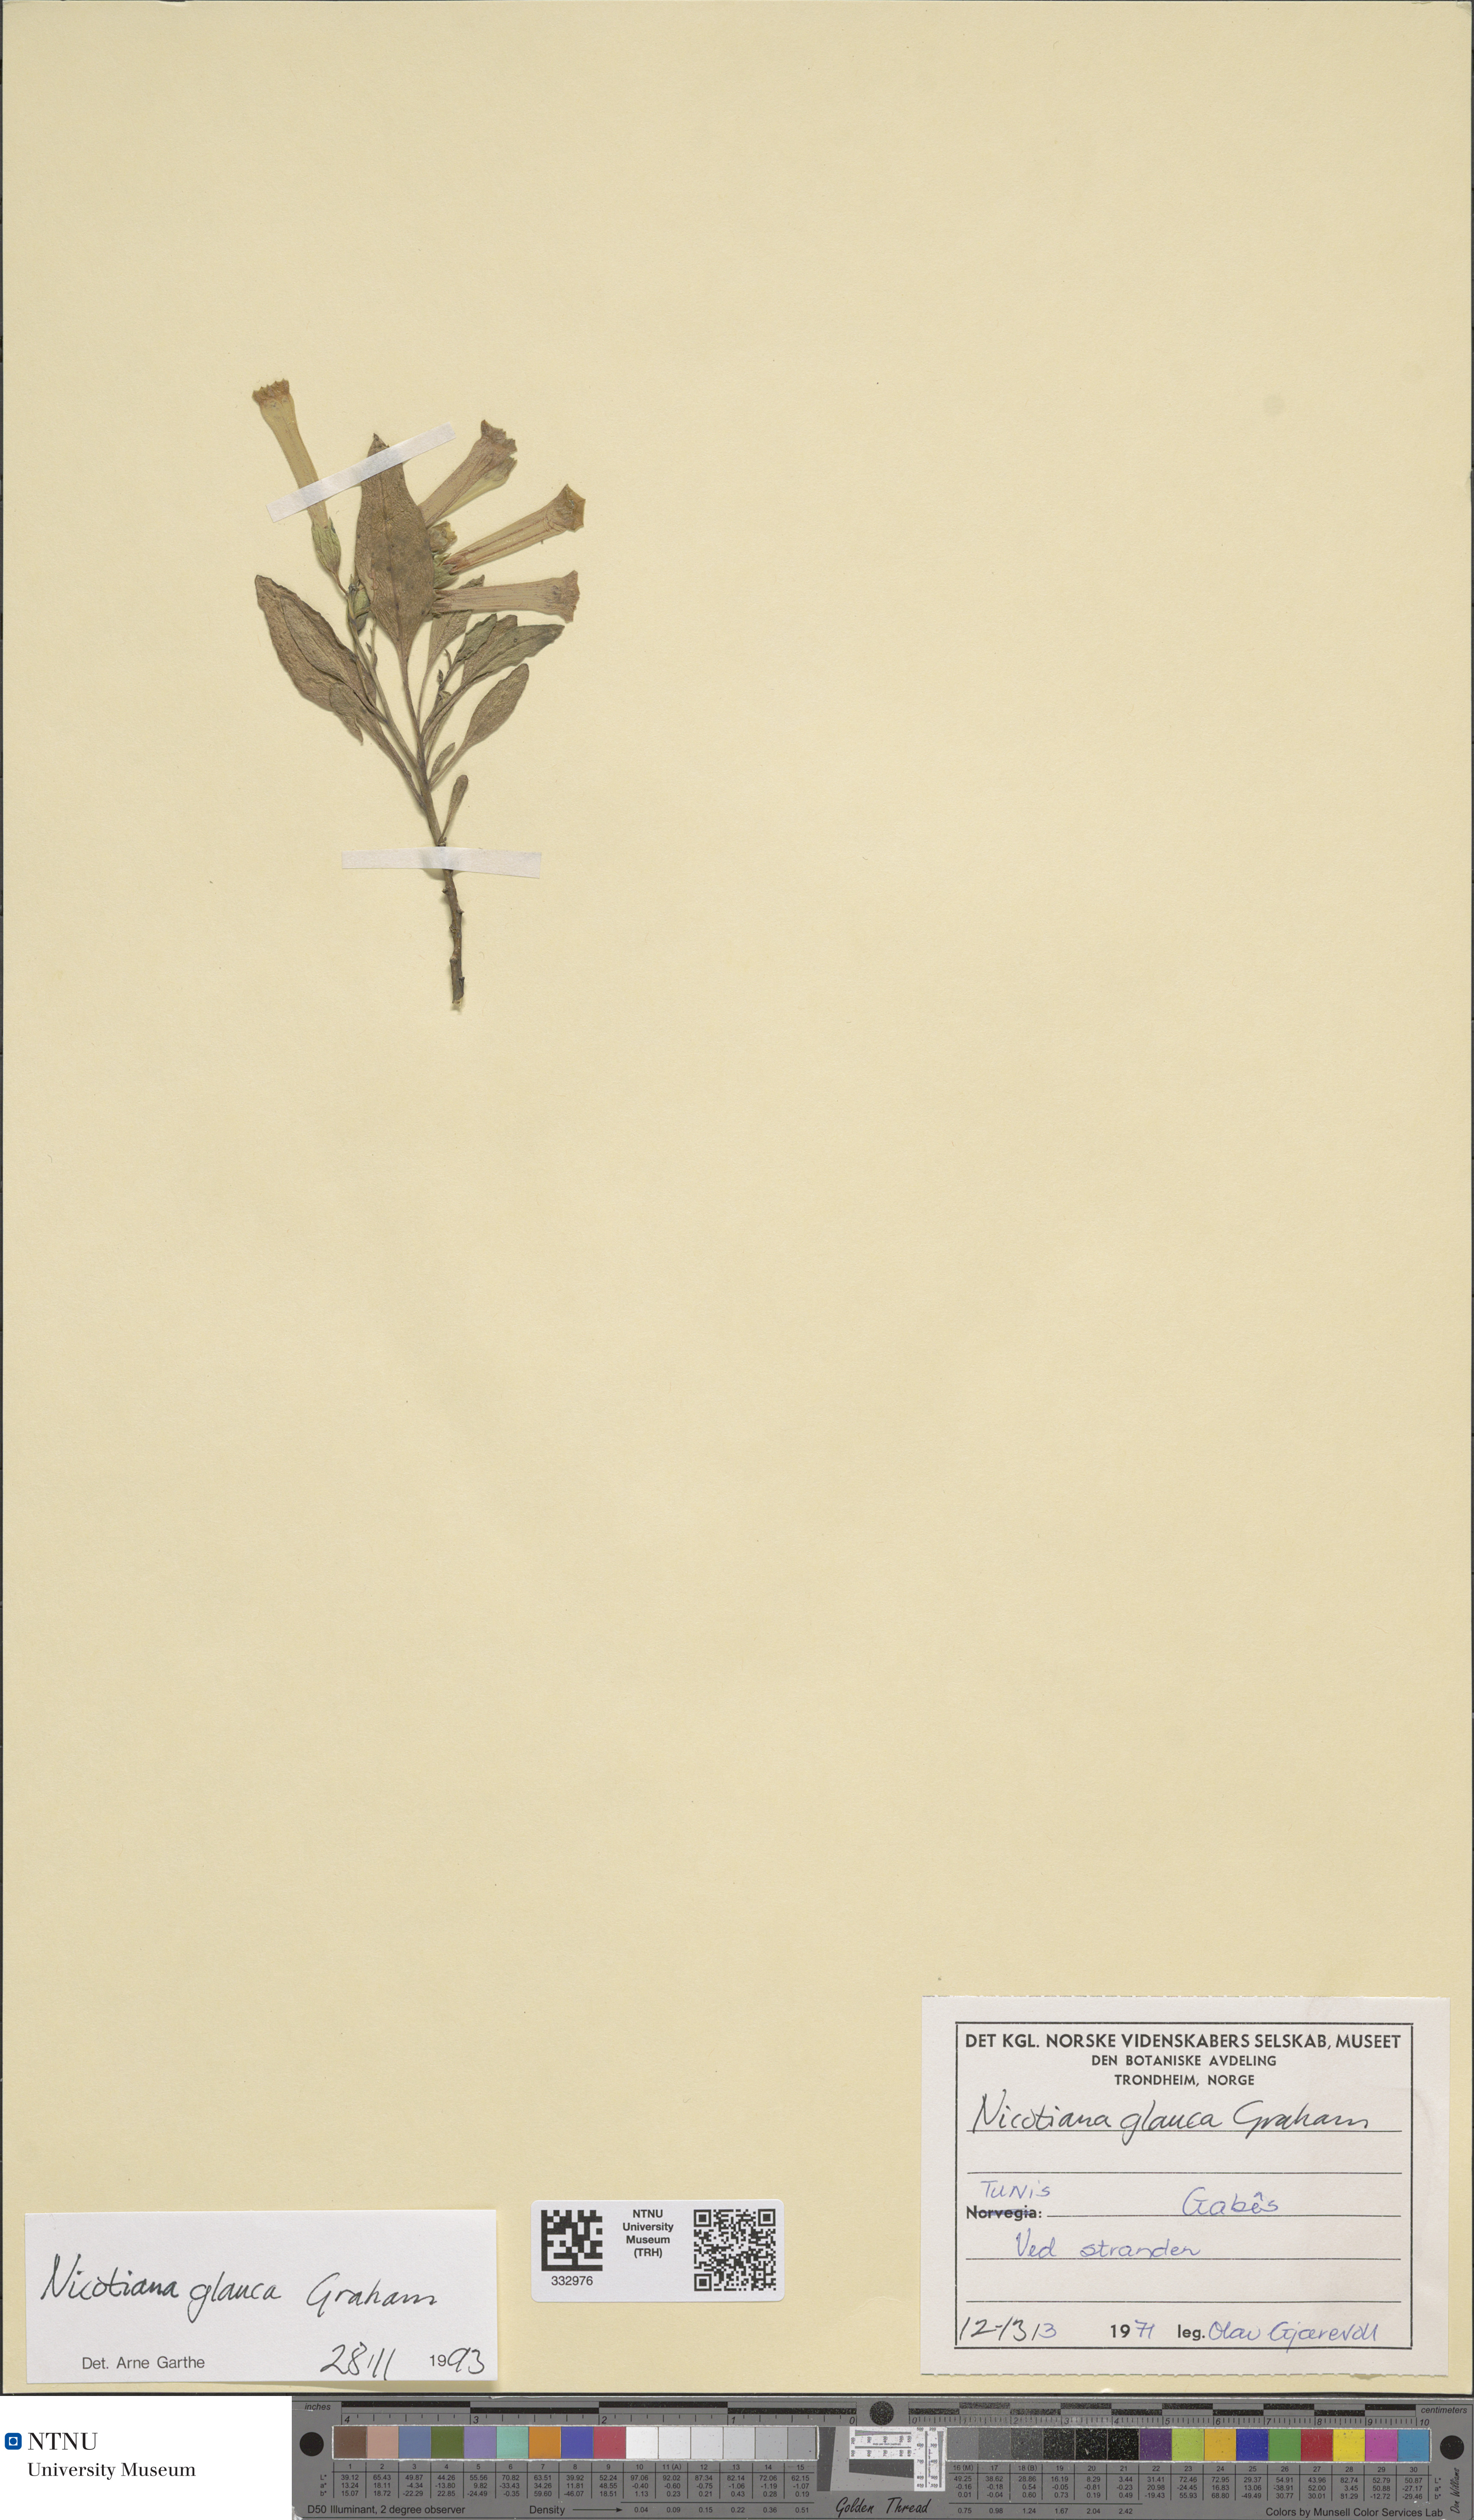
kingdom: Plantae
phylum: Tracheophyta
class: Magnoliopsida
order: Solanales
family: Solanaceae
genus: Nicotiana
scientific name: Nicotiana glauca
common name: Tree tobacco
